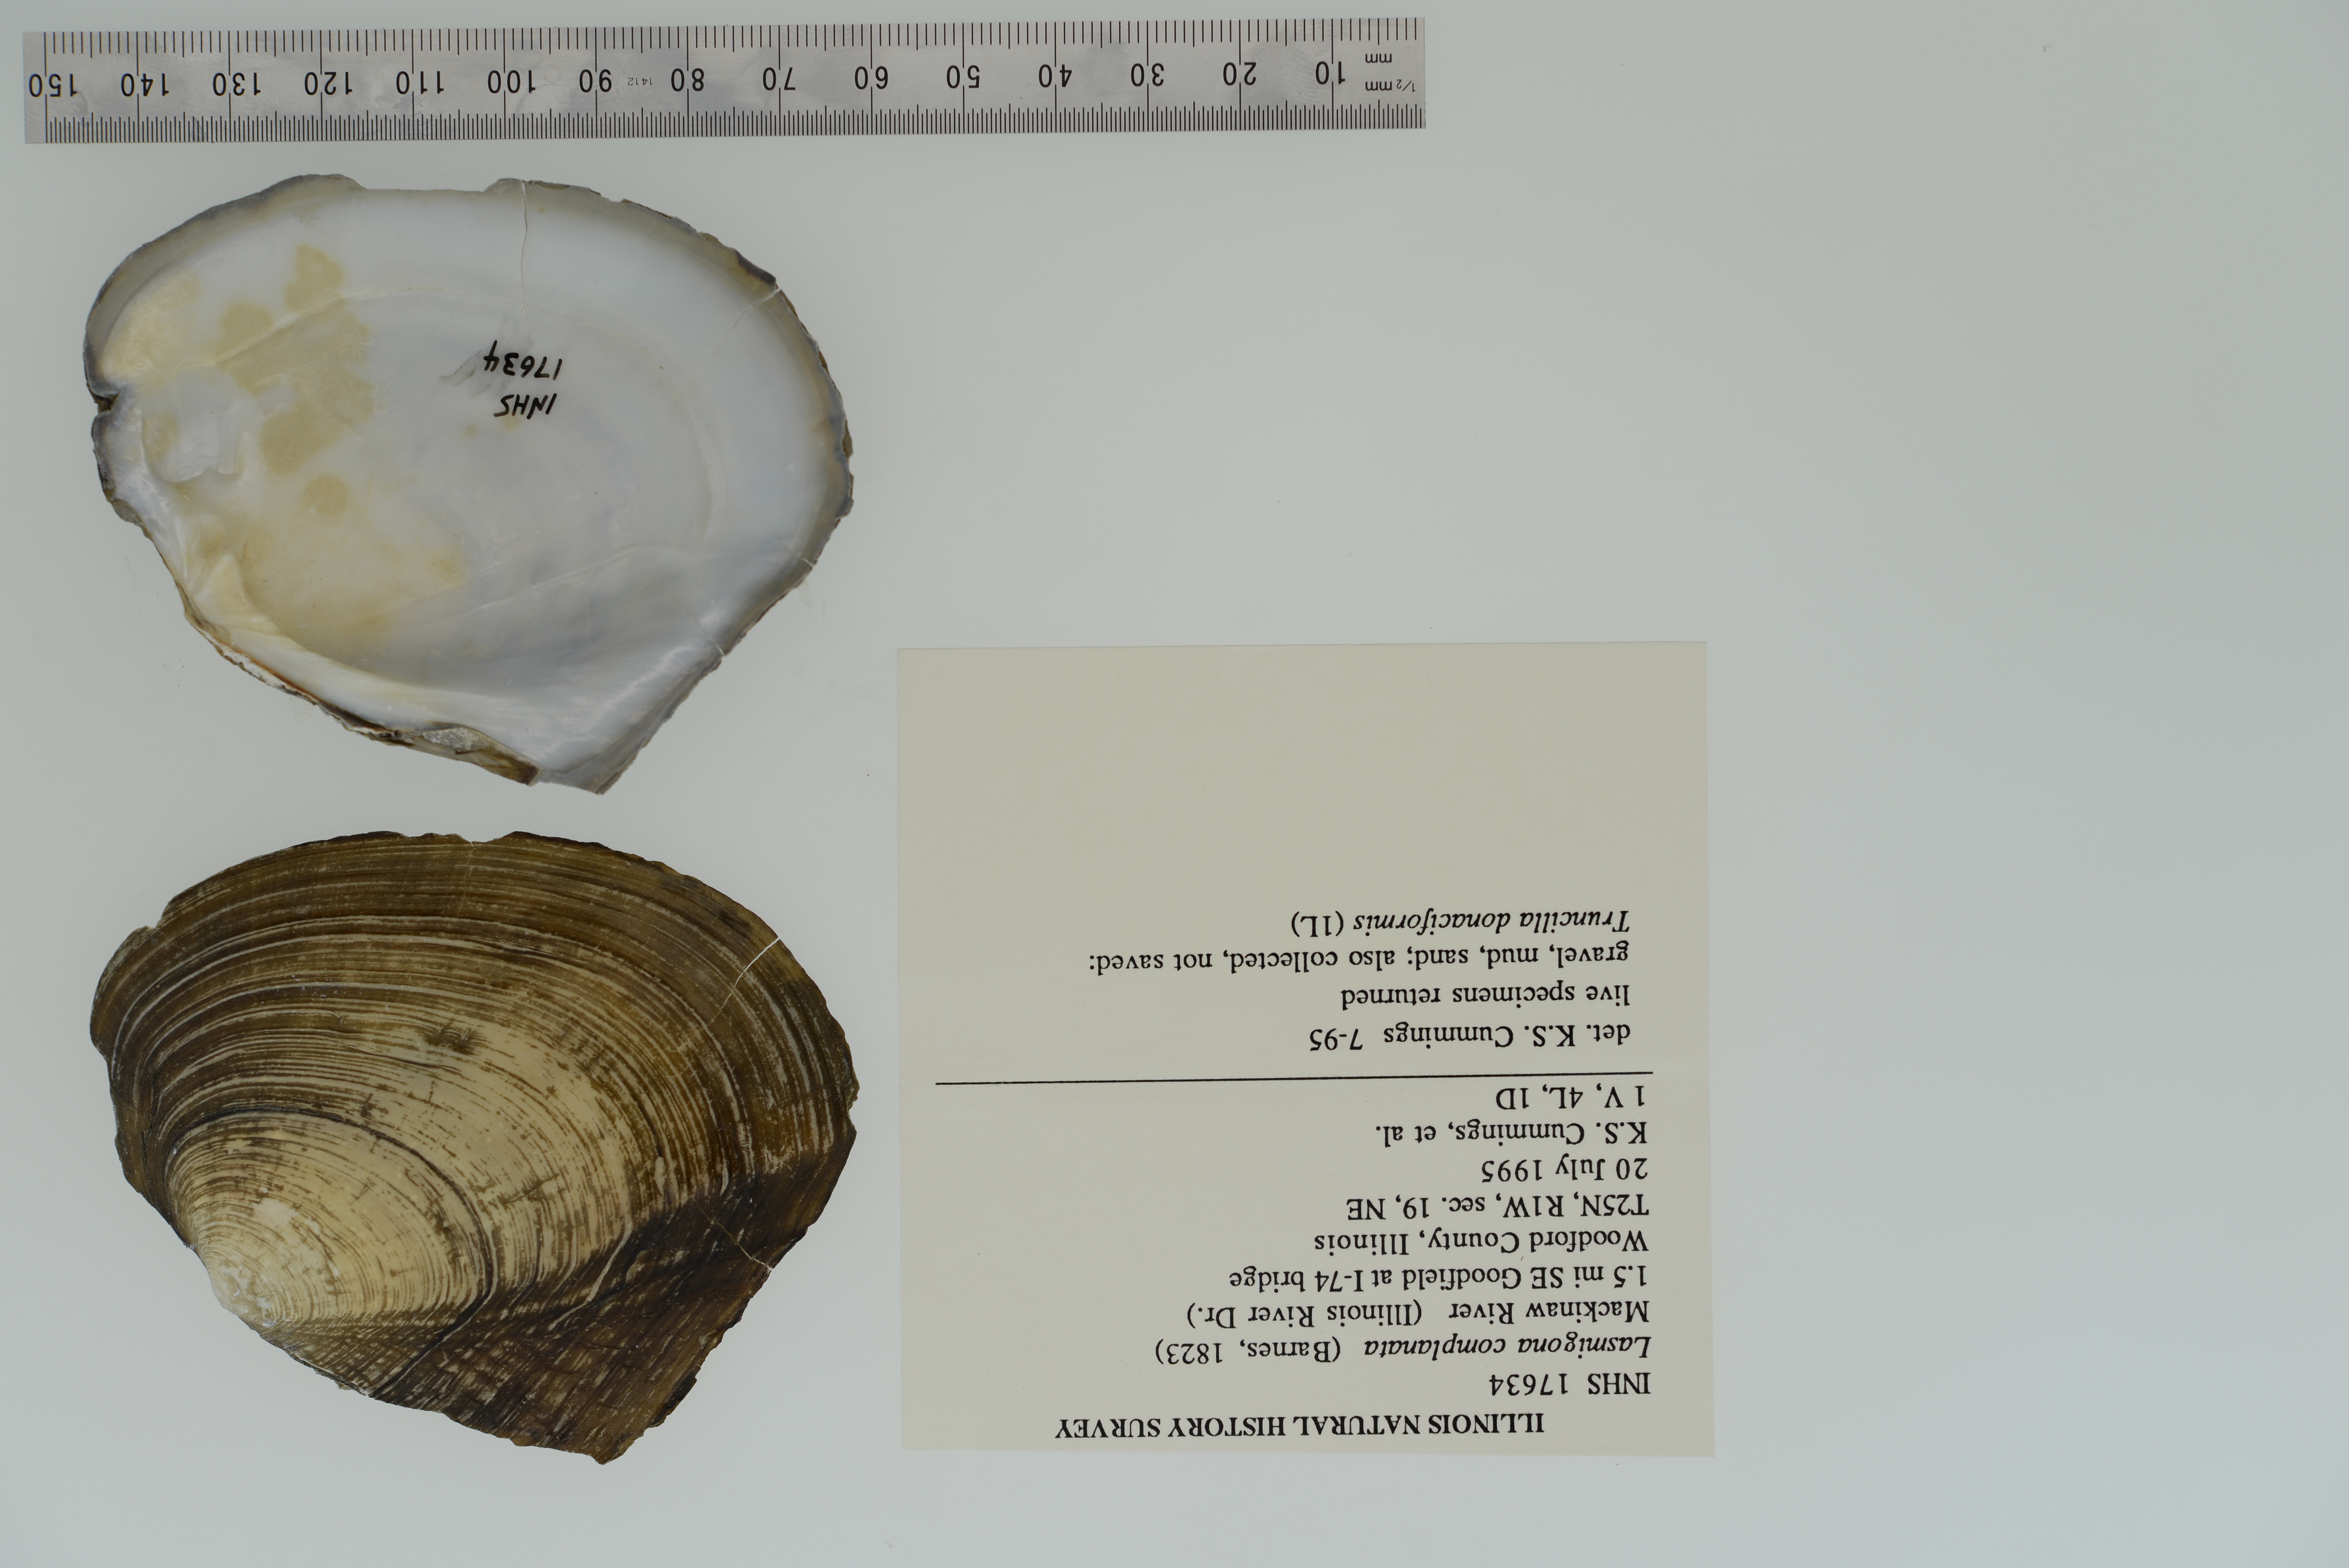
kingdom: Animalia
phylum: Mollusca
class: Bivalvia
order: Unionida
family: Unionidae
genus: Lasmigona
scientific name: Lasmigona complanata
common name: White heelsplitter
